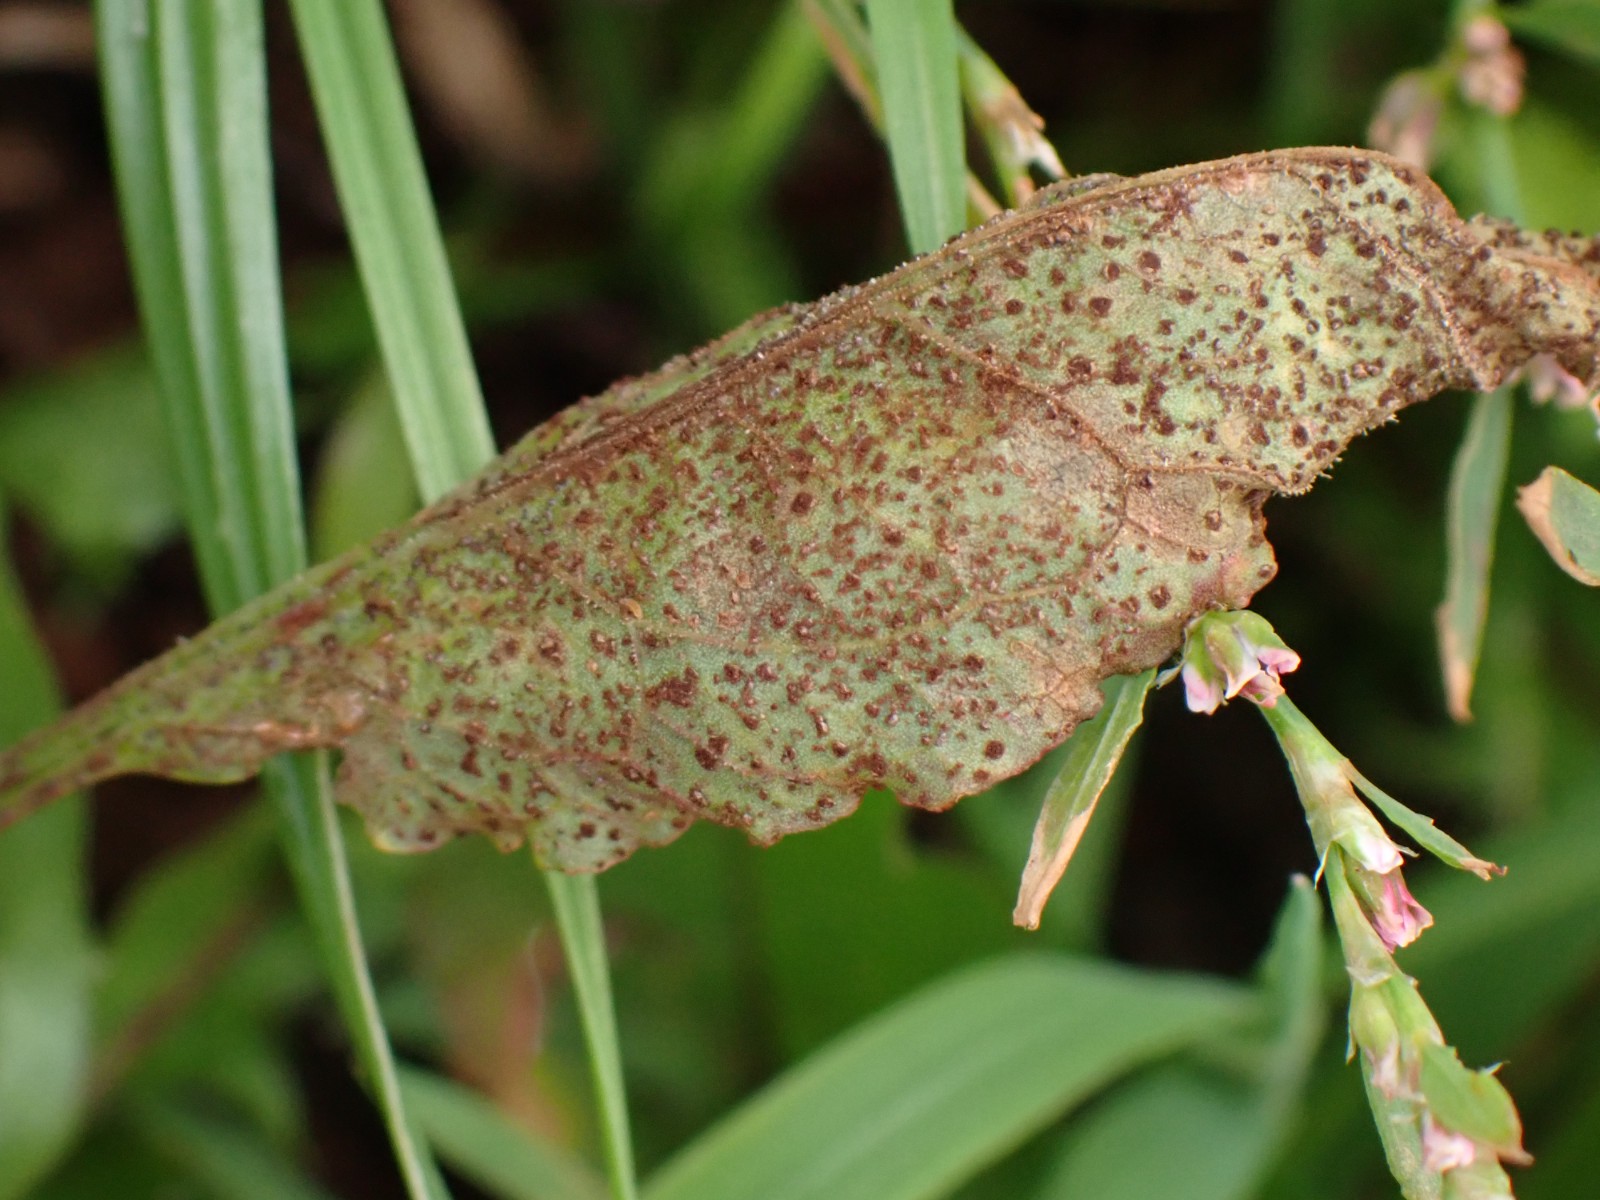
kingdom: Fungi
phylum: Basidiomycota
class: Pucciniomycetes
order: Pucciniales
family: Pucciniaceae
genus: Uromyces
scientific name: Uromyces rumicis
